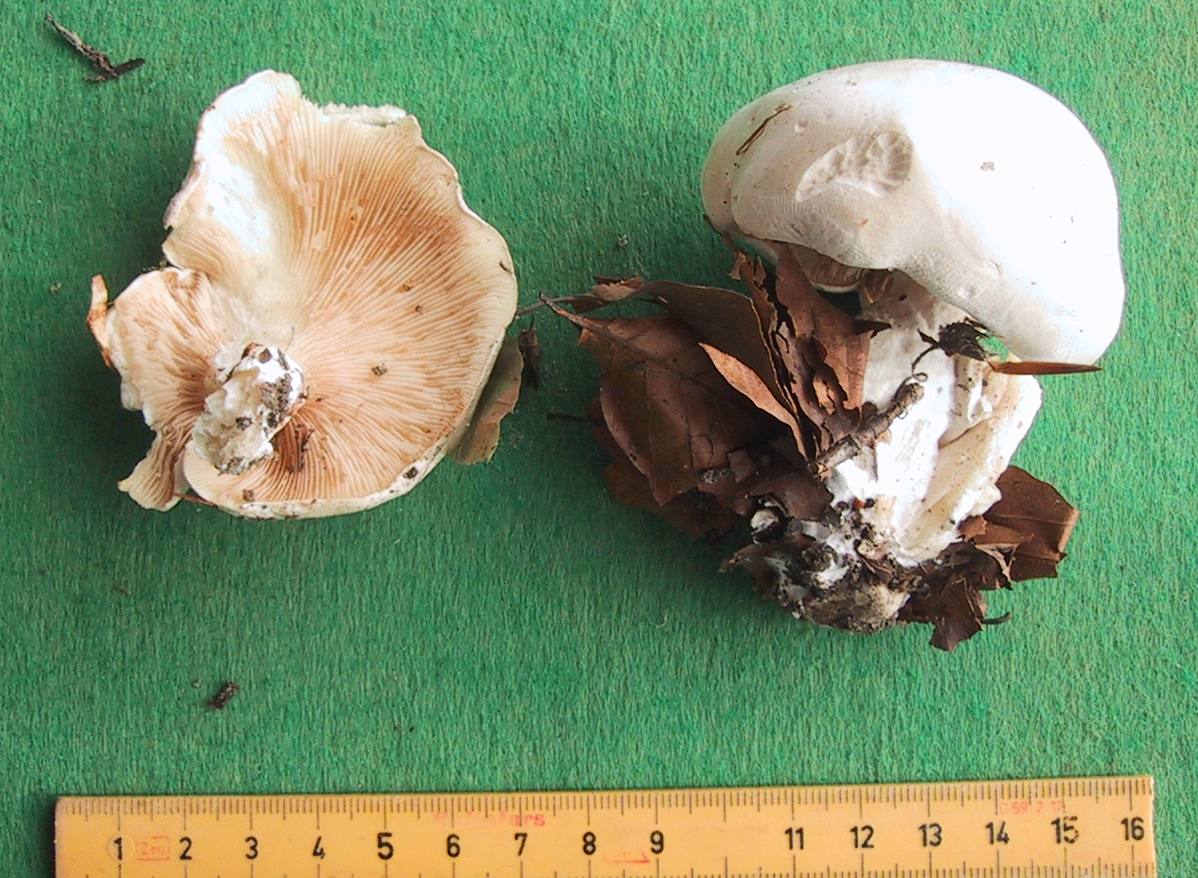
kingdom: Fungi
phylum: Basidiomycota
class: Agaricomycetes
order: Agaricales
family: Entolomataceae
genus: Clitopilus
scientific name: Clitopilus prunulus
